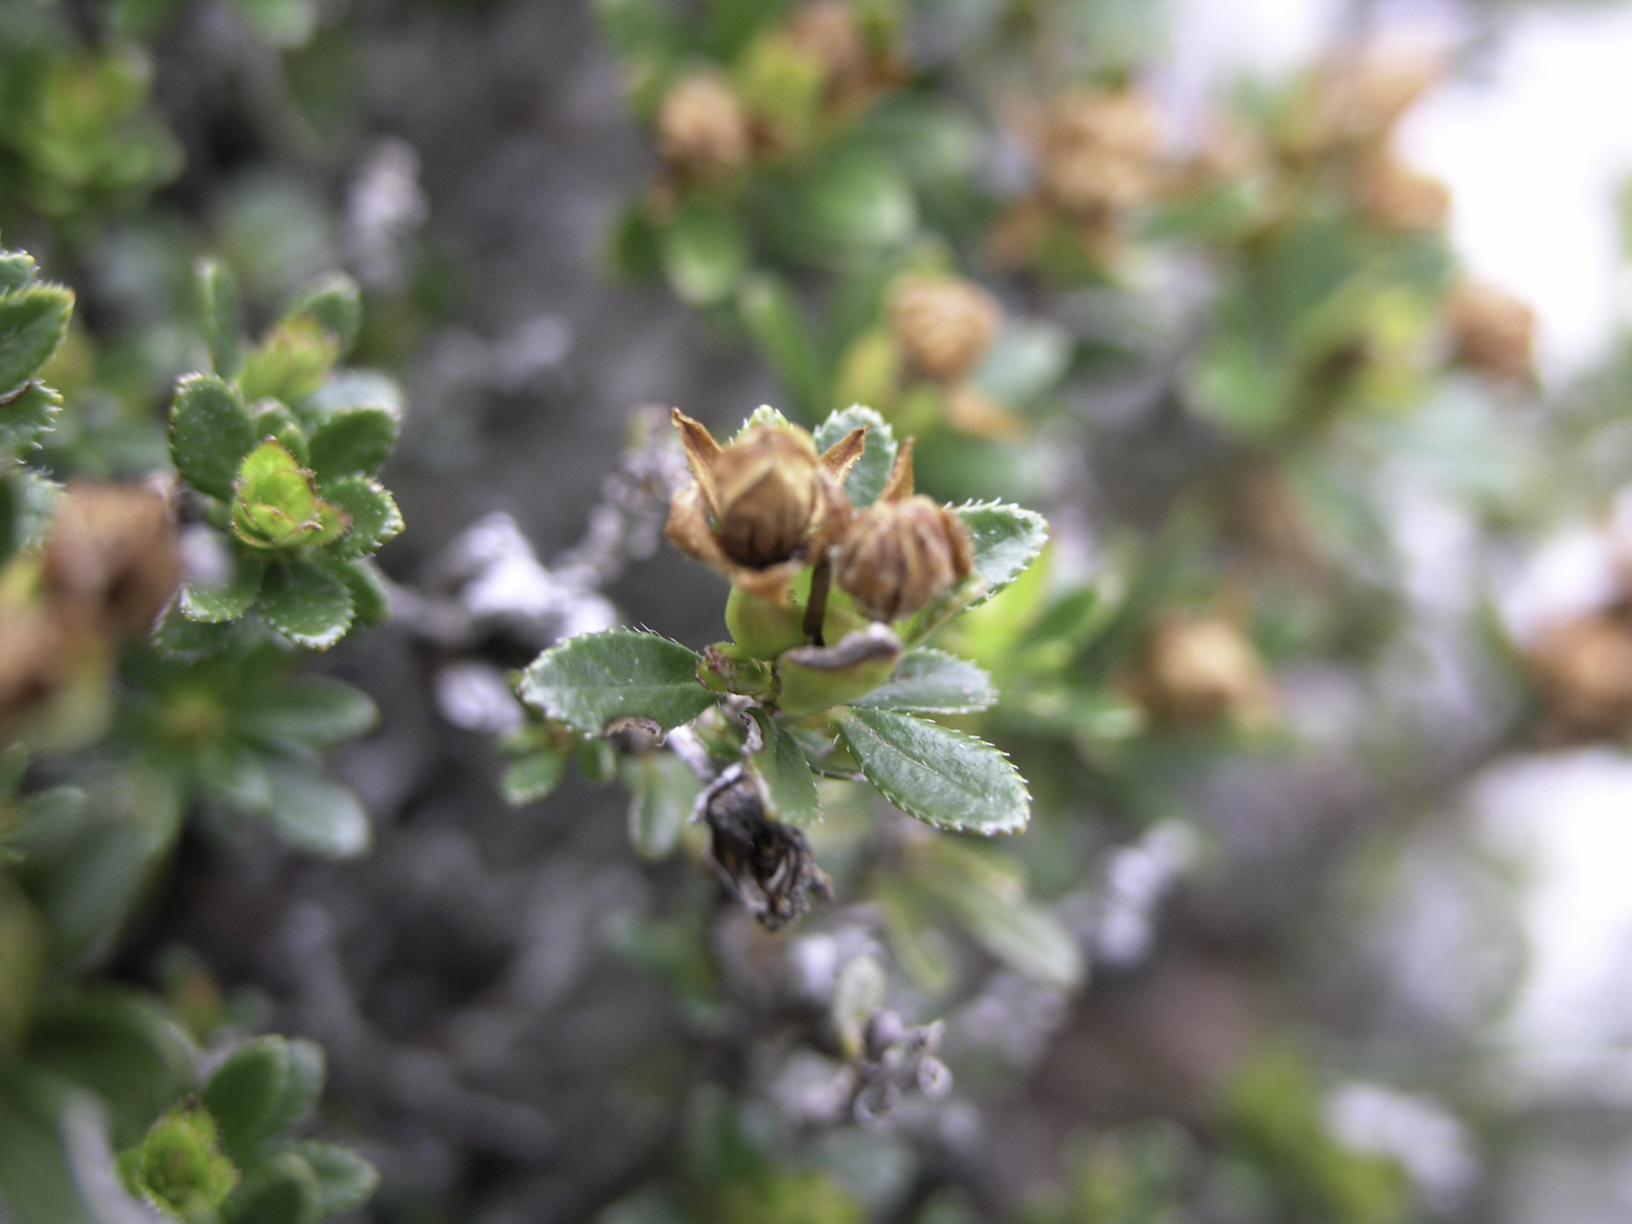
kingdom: Plantae
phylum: Tracheophyta
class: Magnoliopsida
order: Ericales
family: Ericaceae
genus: Rhodothamnus
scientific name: Rhodothamnus chamaecistus
